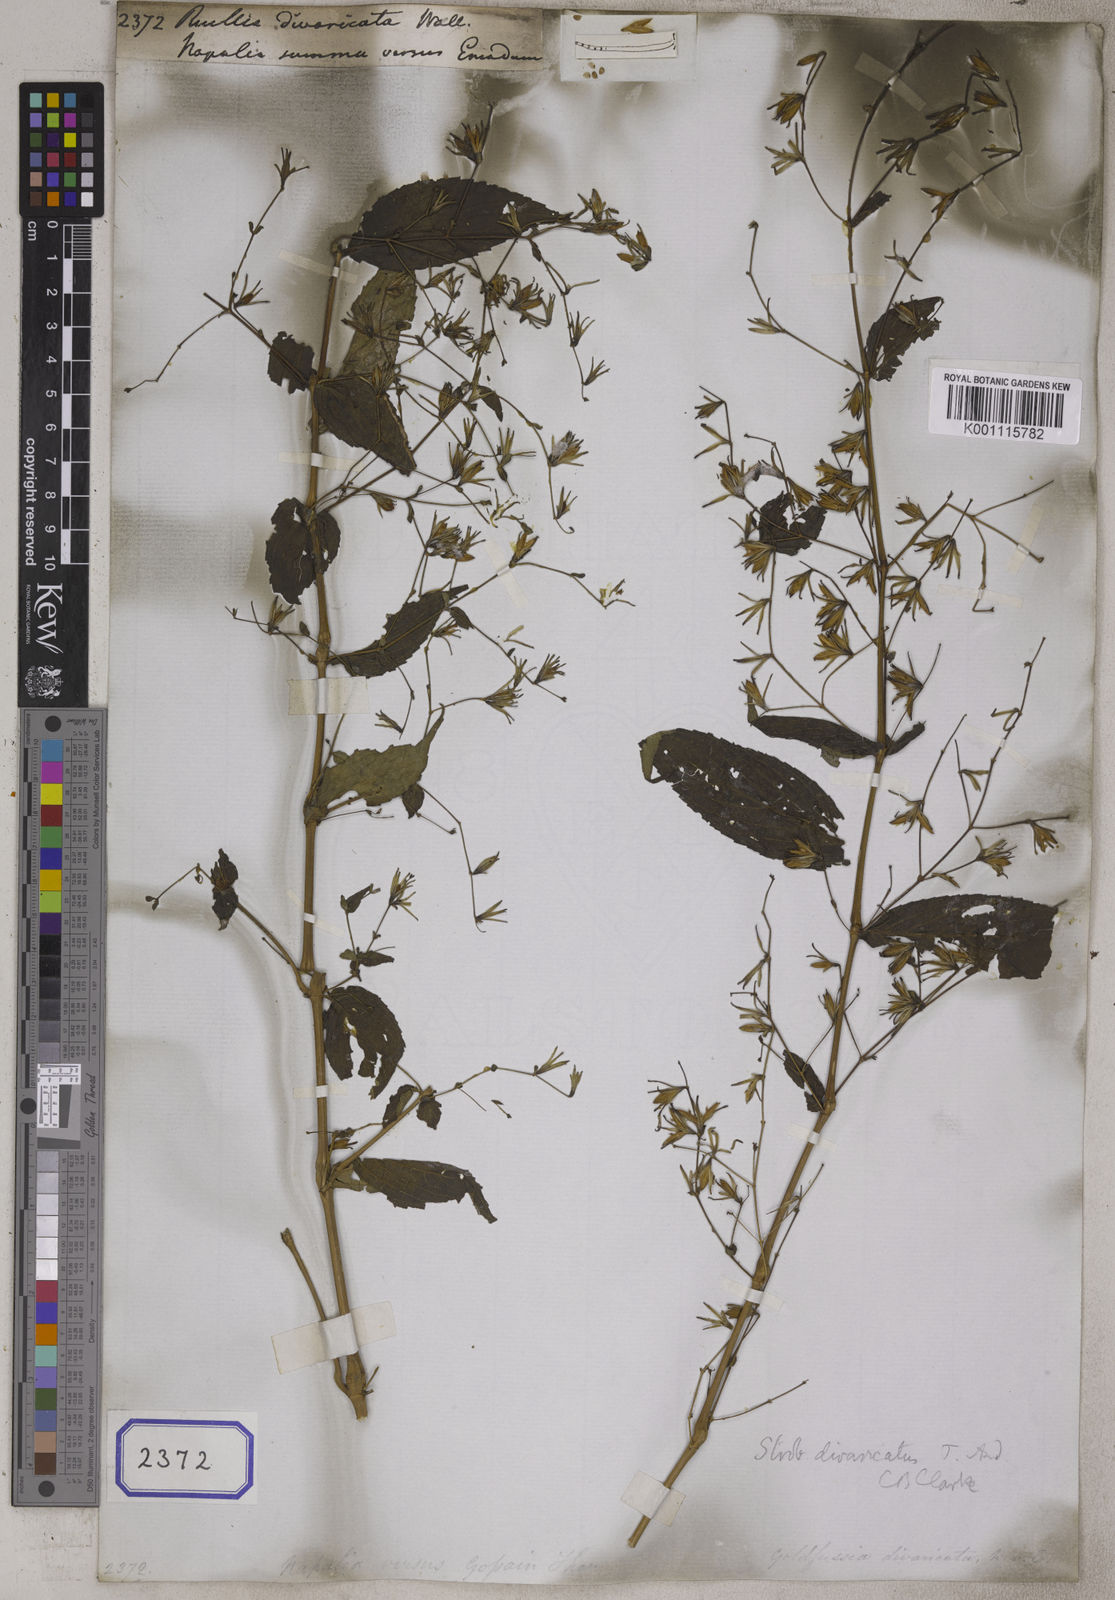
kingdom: Plantae
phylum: Tracheophyta
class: Magnoliopsida
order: Lamiales
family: Acanthaceae
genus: Strobilanthes
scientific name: Strobilanthes divaricata
